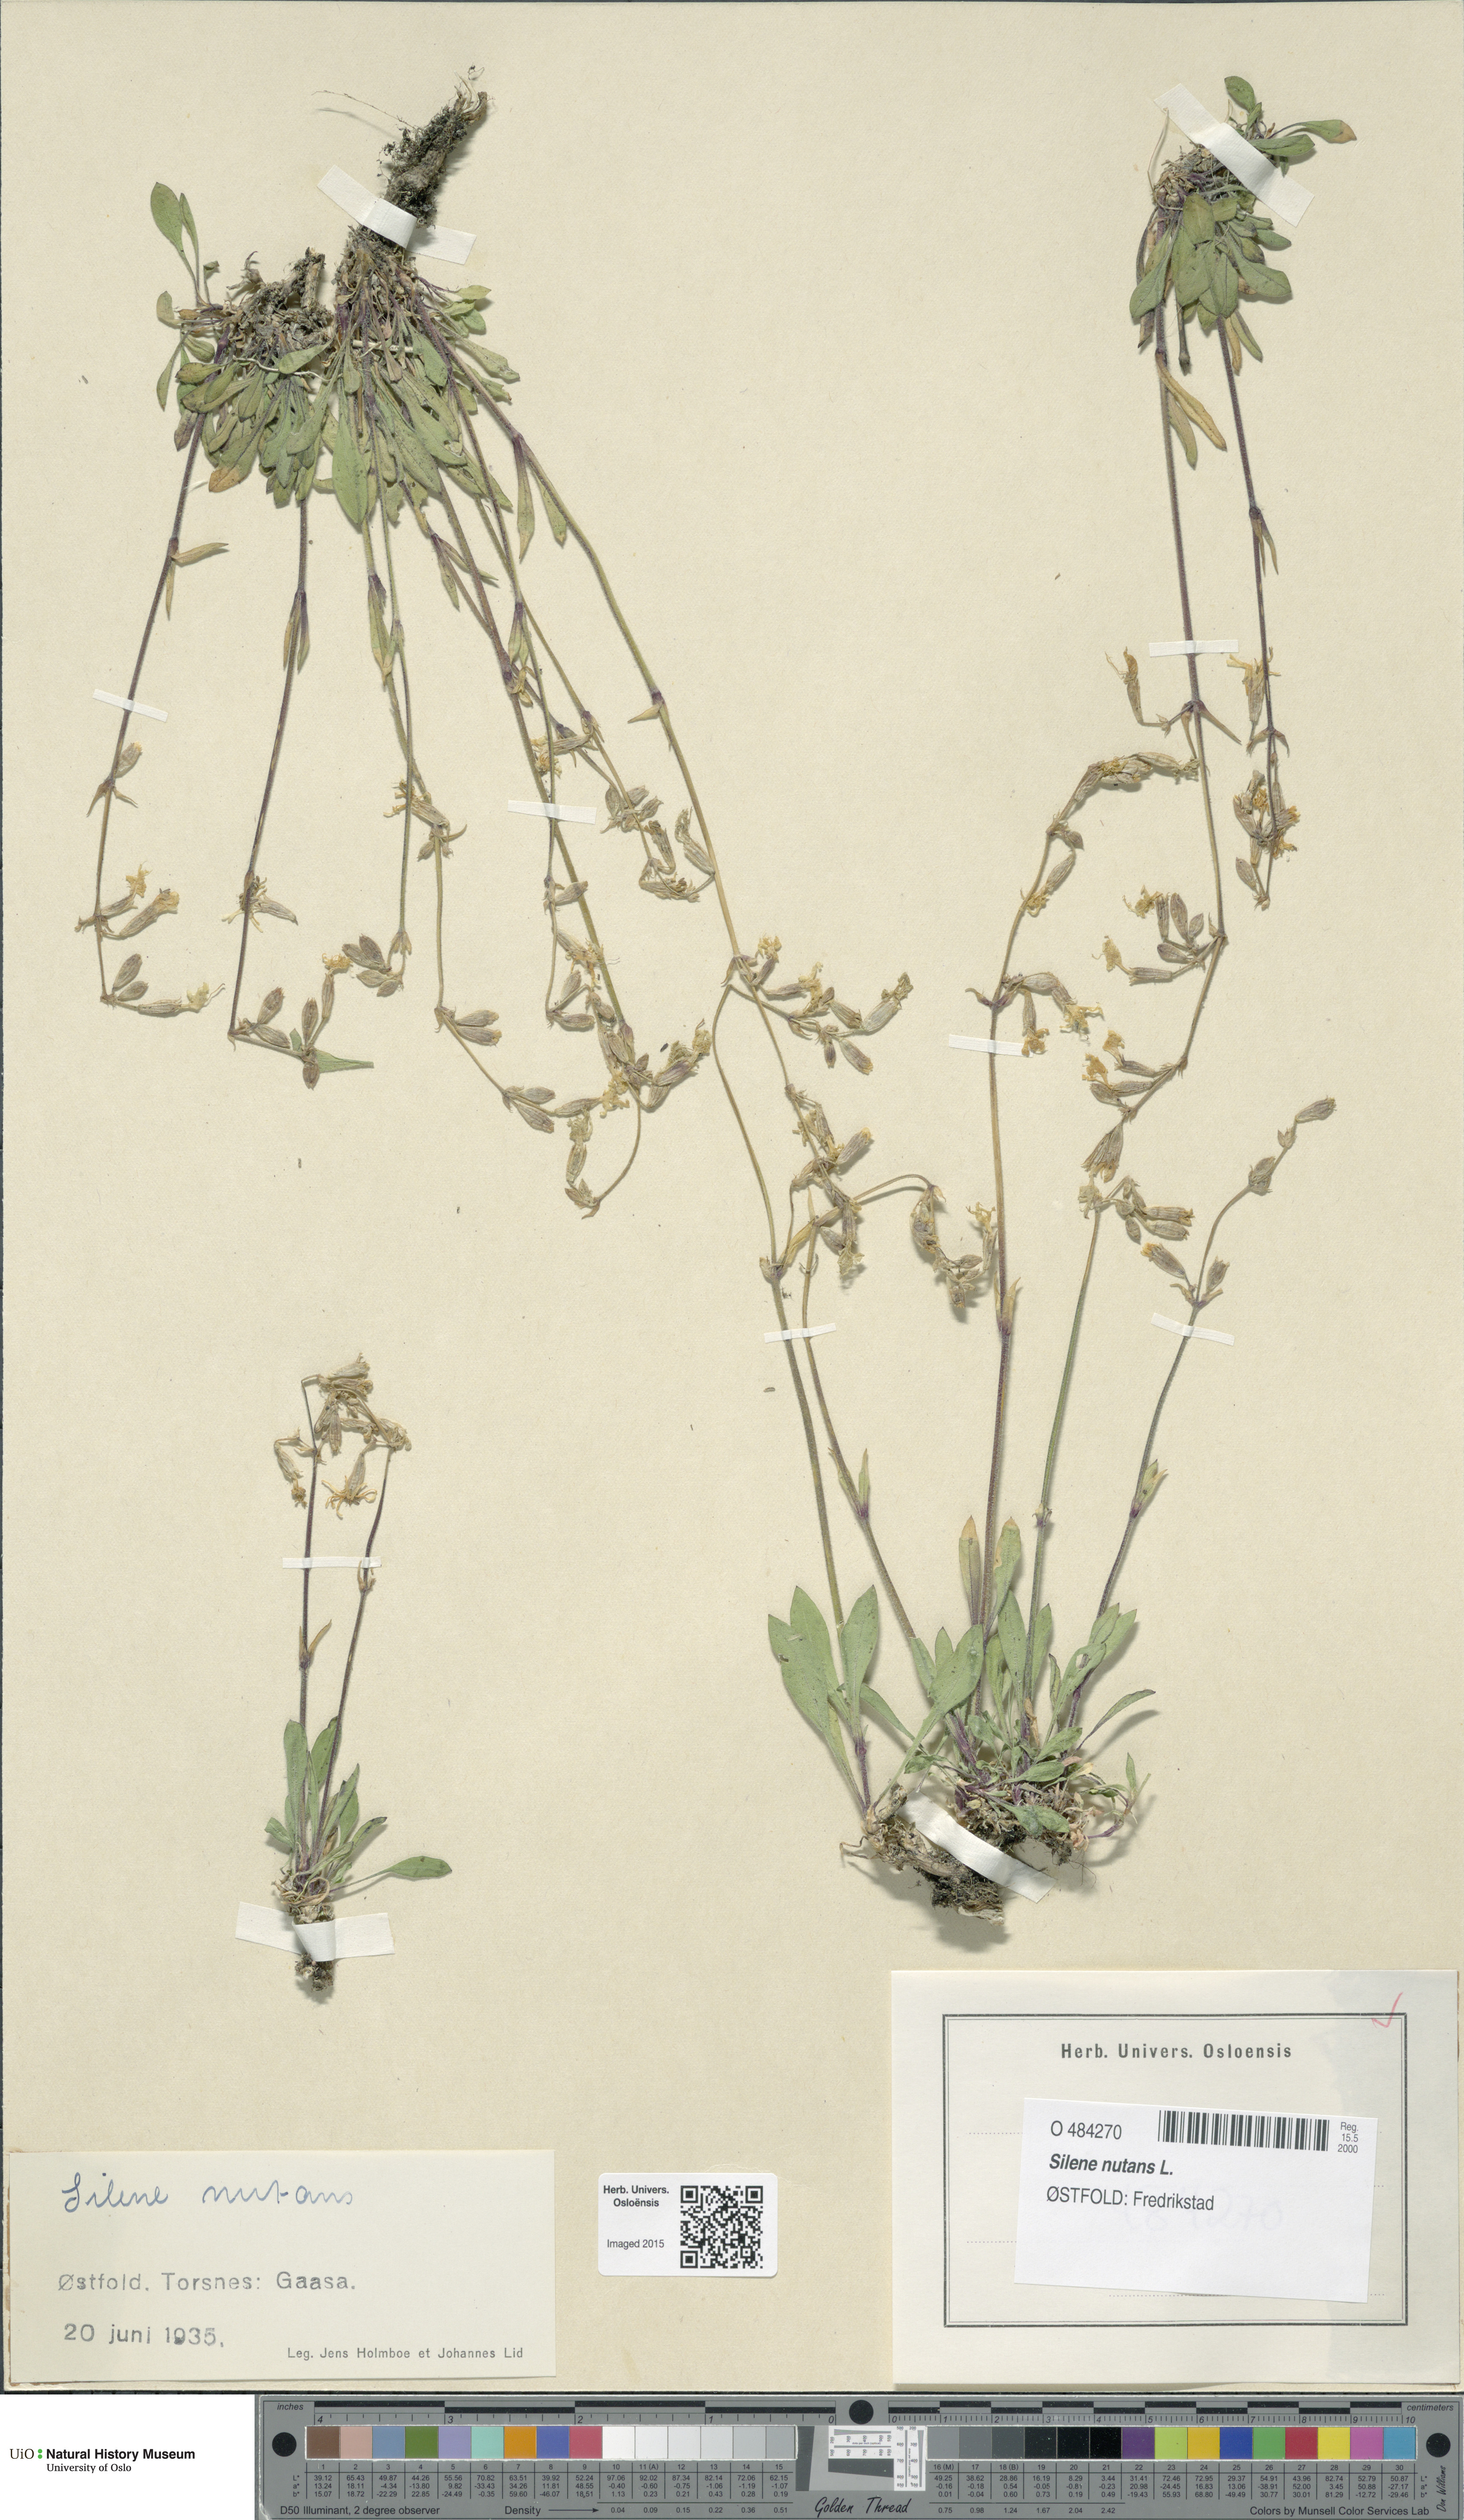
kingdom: Plantae
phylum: Tracheophyta
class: Magnoliopsida
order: Caryophyllales
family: Caryophyllaceae
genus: Silene
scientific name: Silene nutans
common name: Nottingham catchfly
